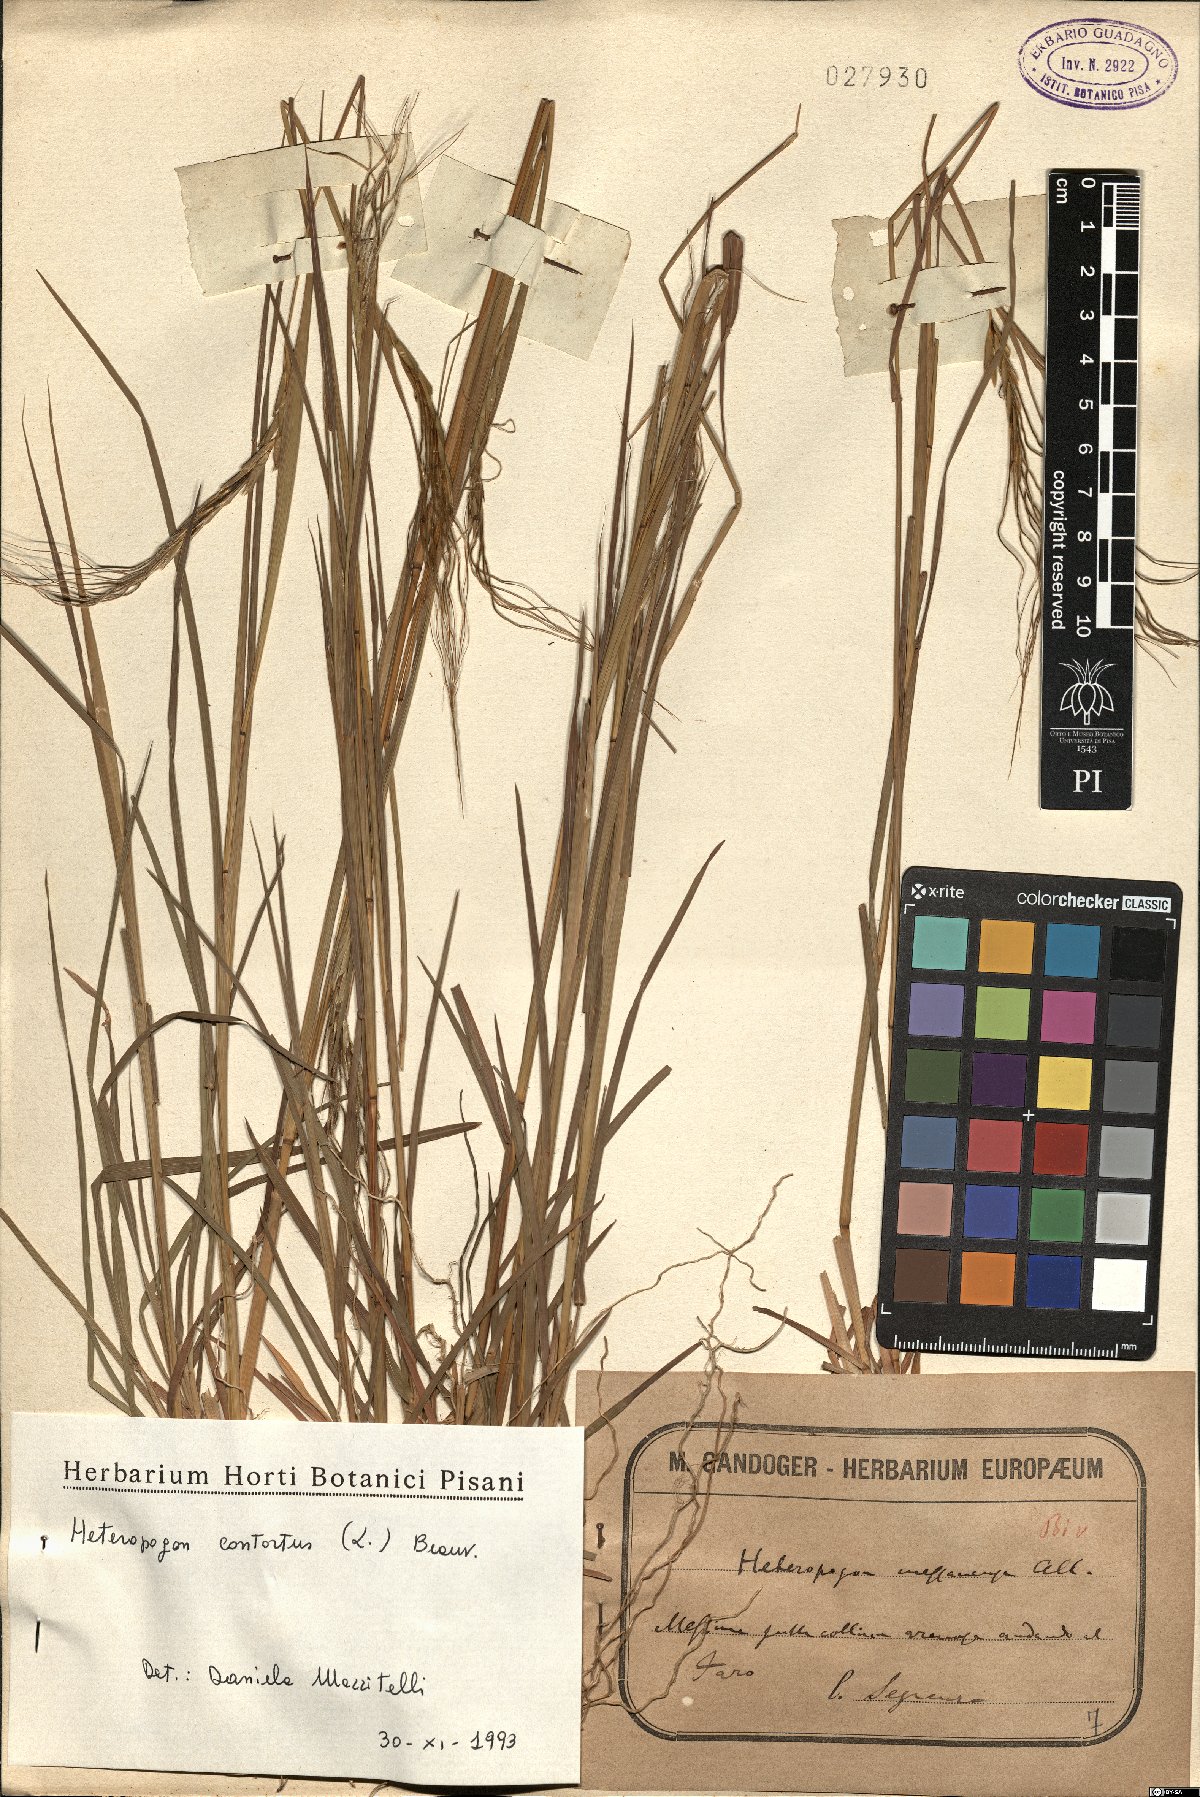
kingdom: Plantae
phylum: Tracheophyta
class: Liliopsida
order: Poales
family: Poaceae
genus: Heteropogon
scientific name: Heteropogon contortus
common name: Tanglehead
